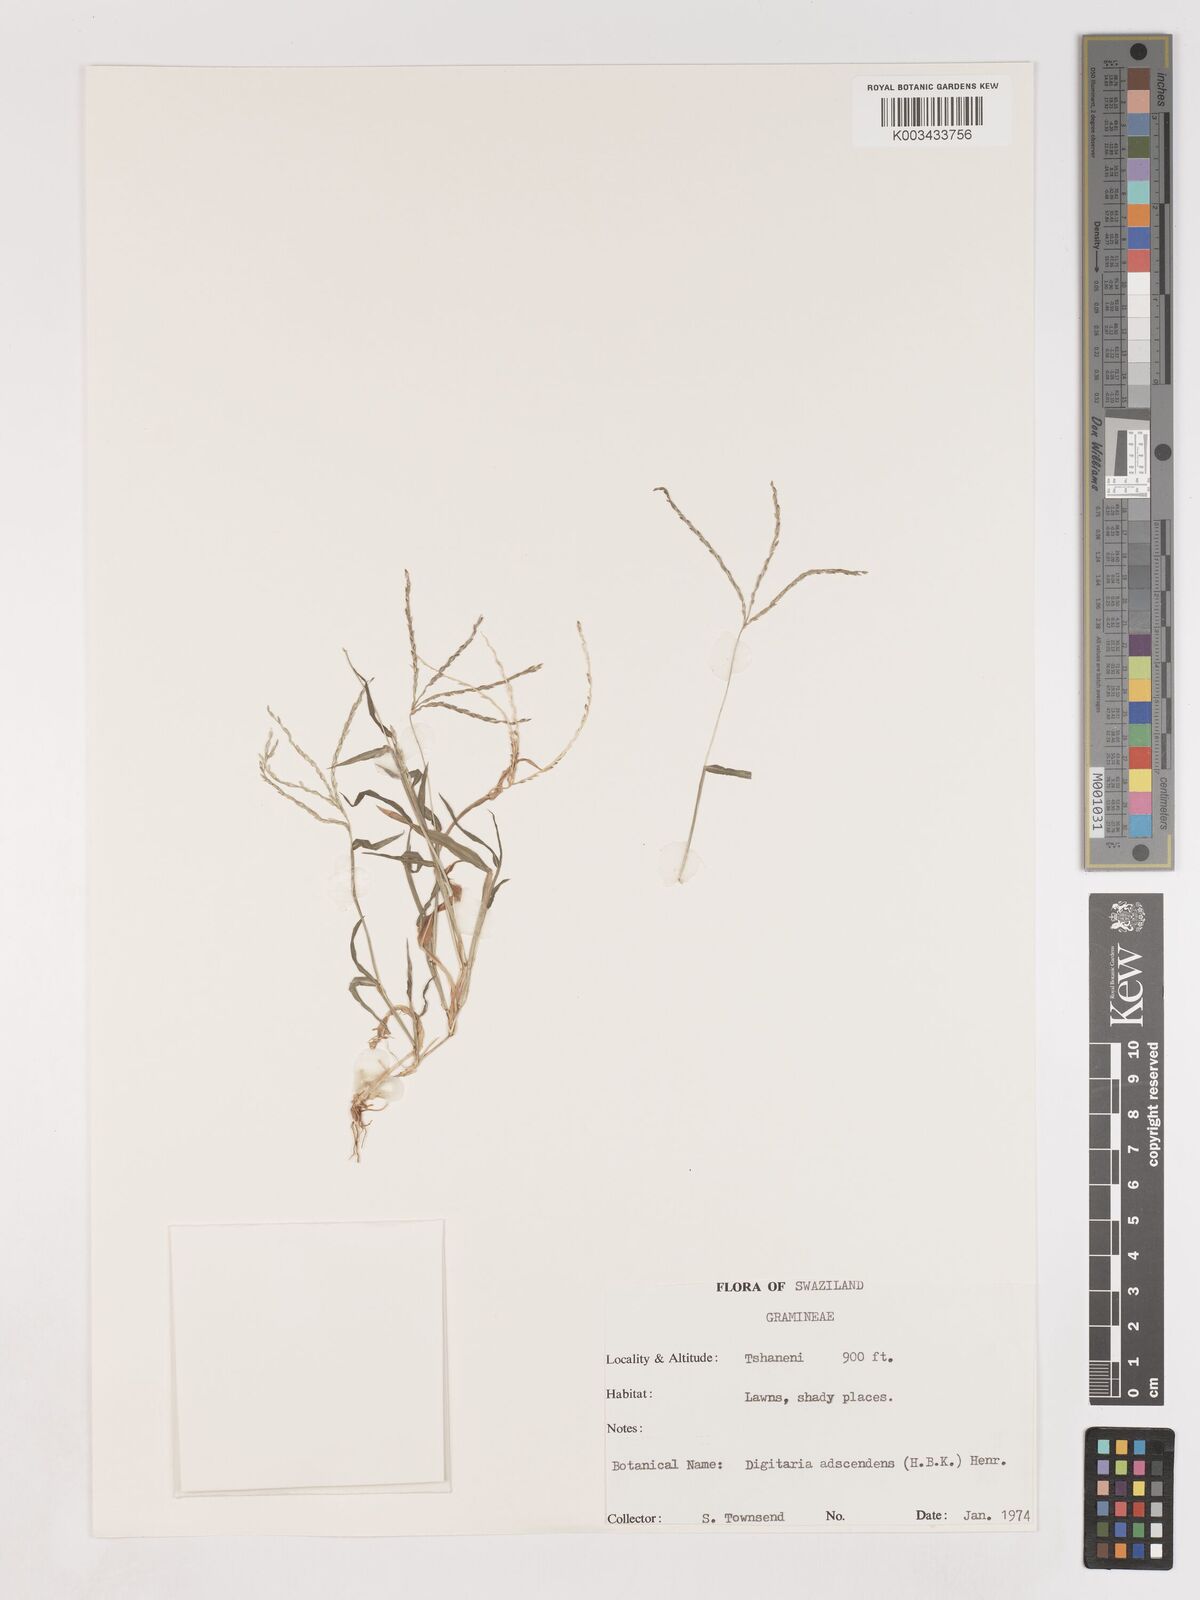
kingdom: Plantae
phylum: Tracheophyta
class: Liliopsida
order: Poales
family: Poaceae
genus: Digitaria
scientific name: Digitaria ciliaris
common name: Tropical finger-grass
